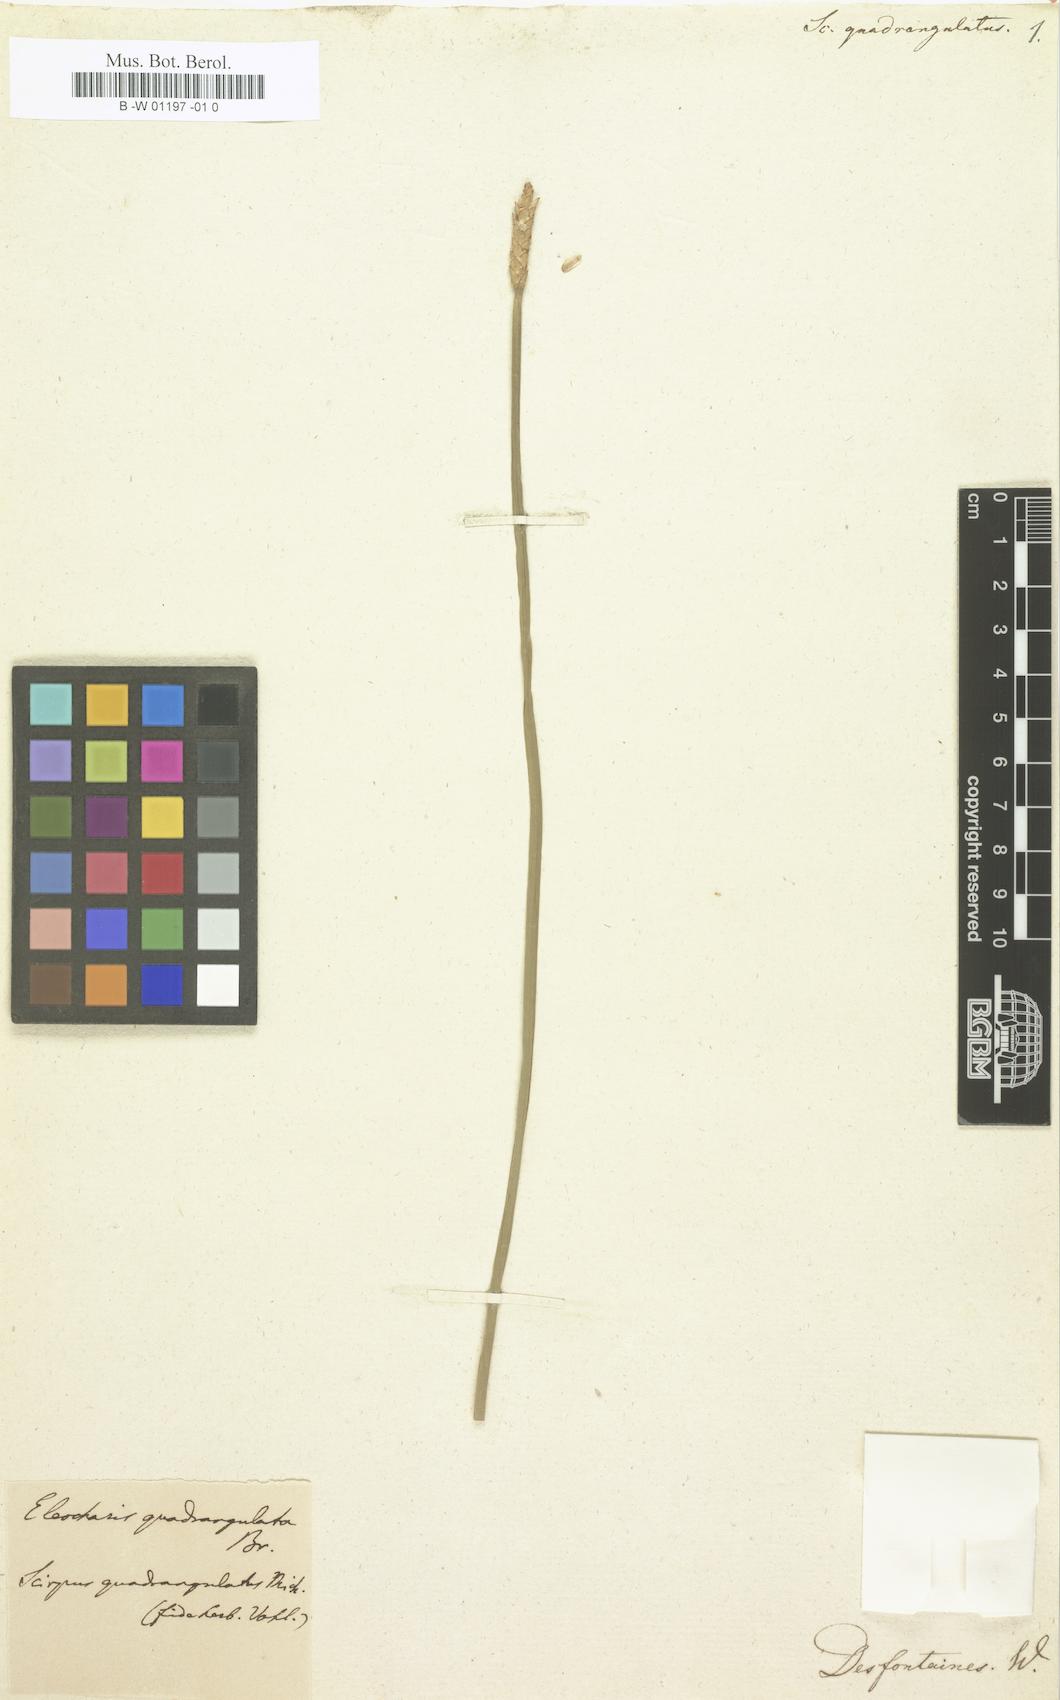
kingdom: Plantae
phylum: Tracheophyta
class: Liliopsida
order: Poales
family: Cyperaceae
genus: Eleocharis
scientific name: Eleocharis
